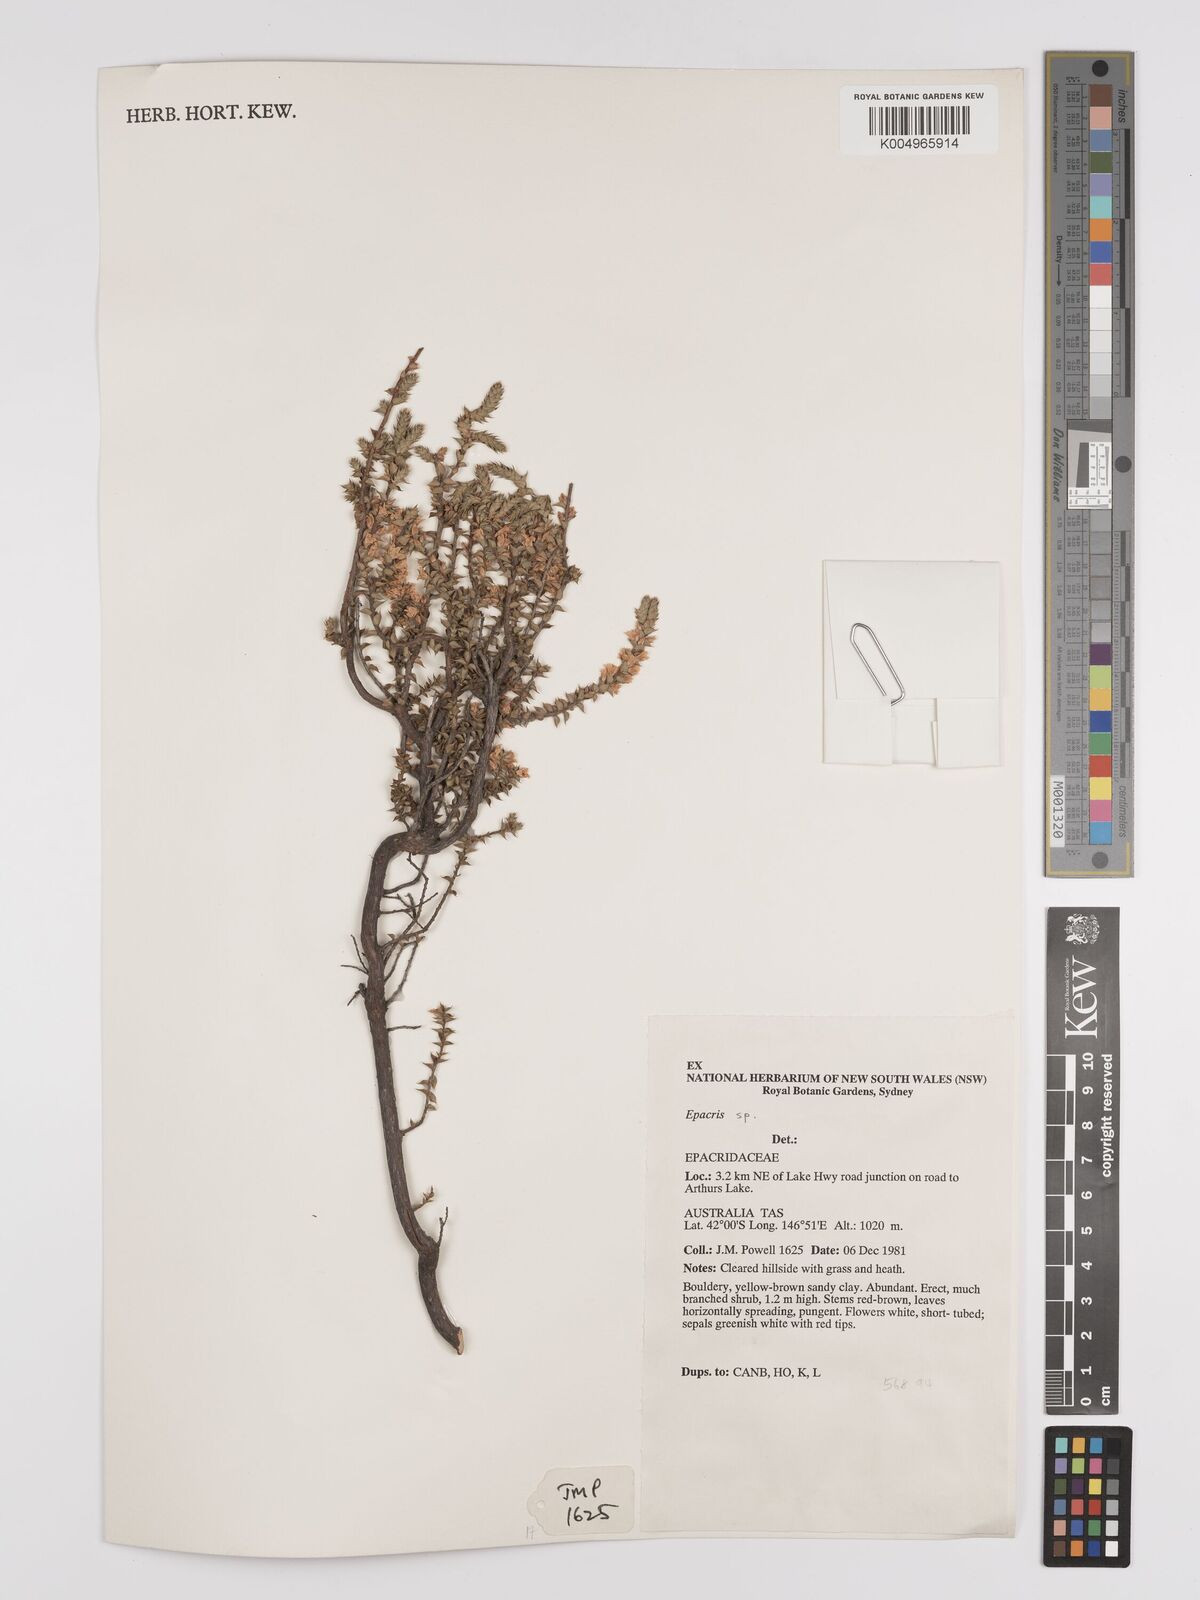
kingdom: Plantae
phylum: Tracheophyta
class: Magnoliopsida
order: Ericales
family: Ericaceae
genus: Epacris
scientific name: Epacris
